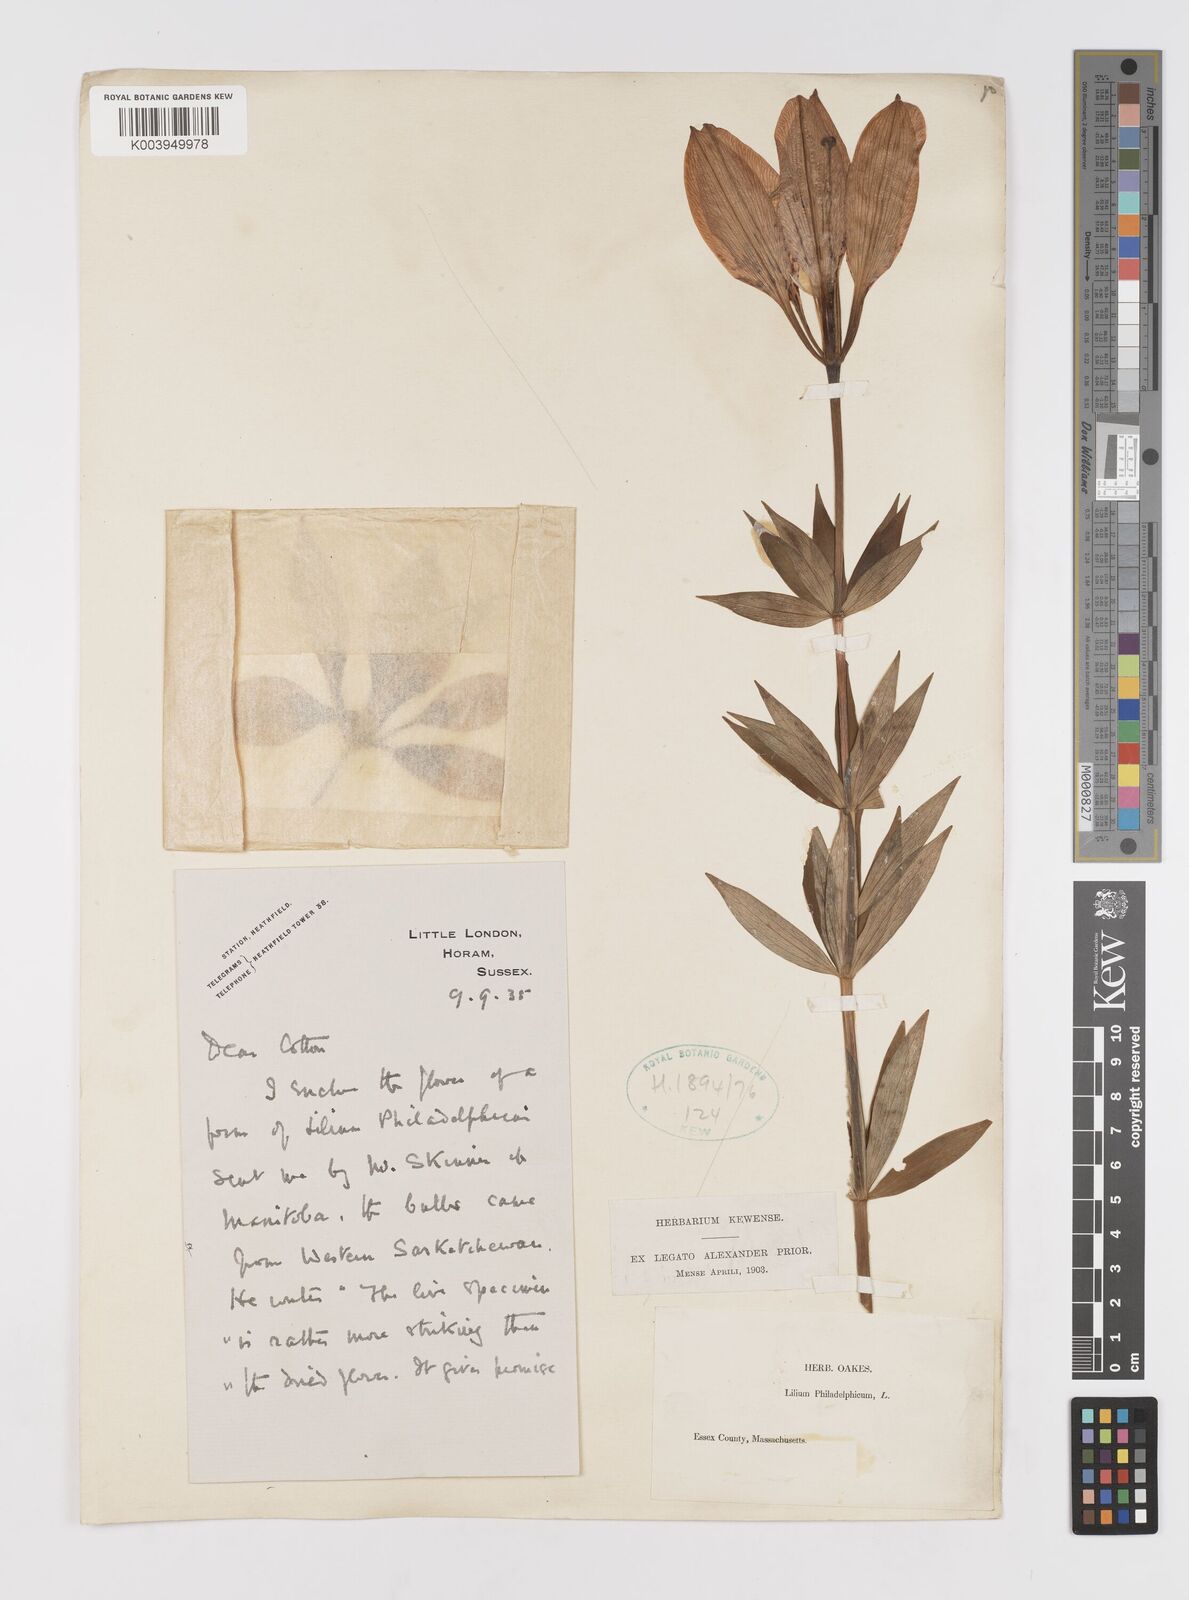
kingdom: Plantae
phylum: Tracheophyta
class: Liliopsida
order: Liliales
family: Liliaceae
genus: Lilium
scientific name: Lilium philadelphicum
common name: Red lily
